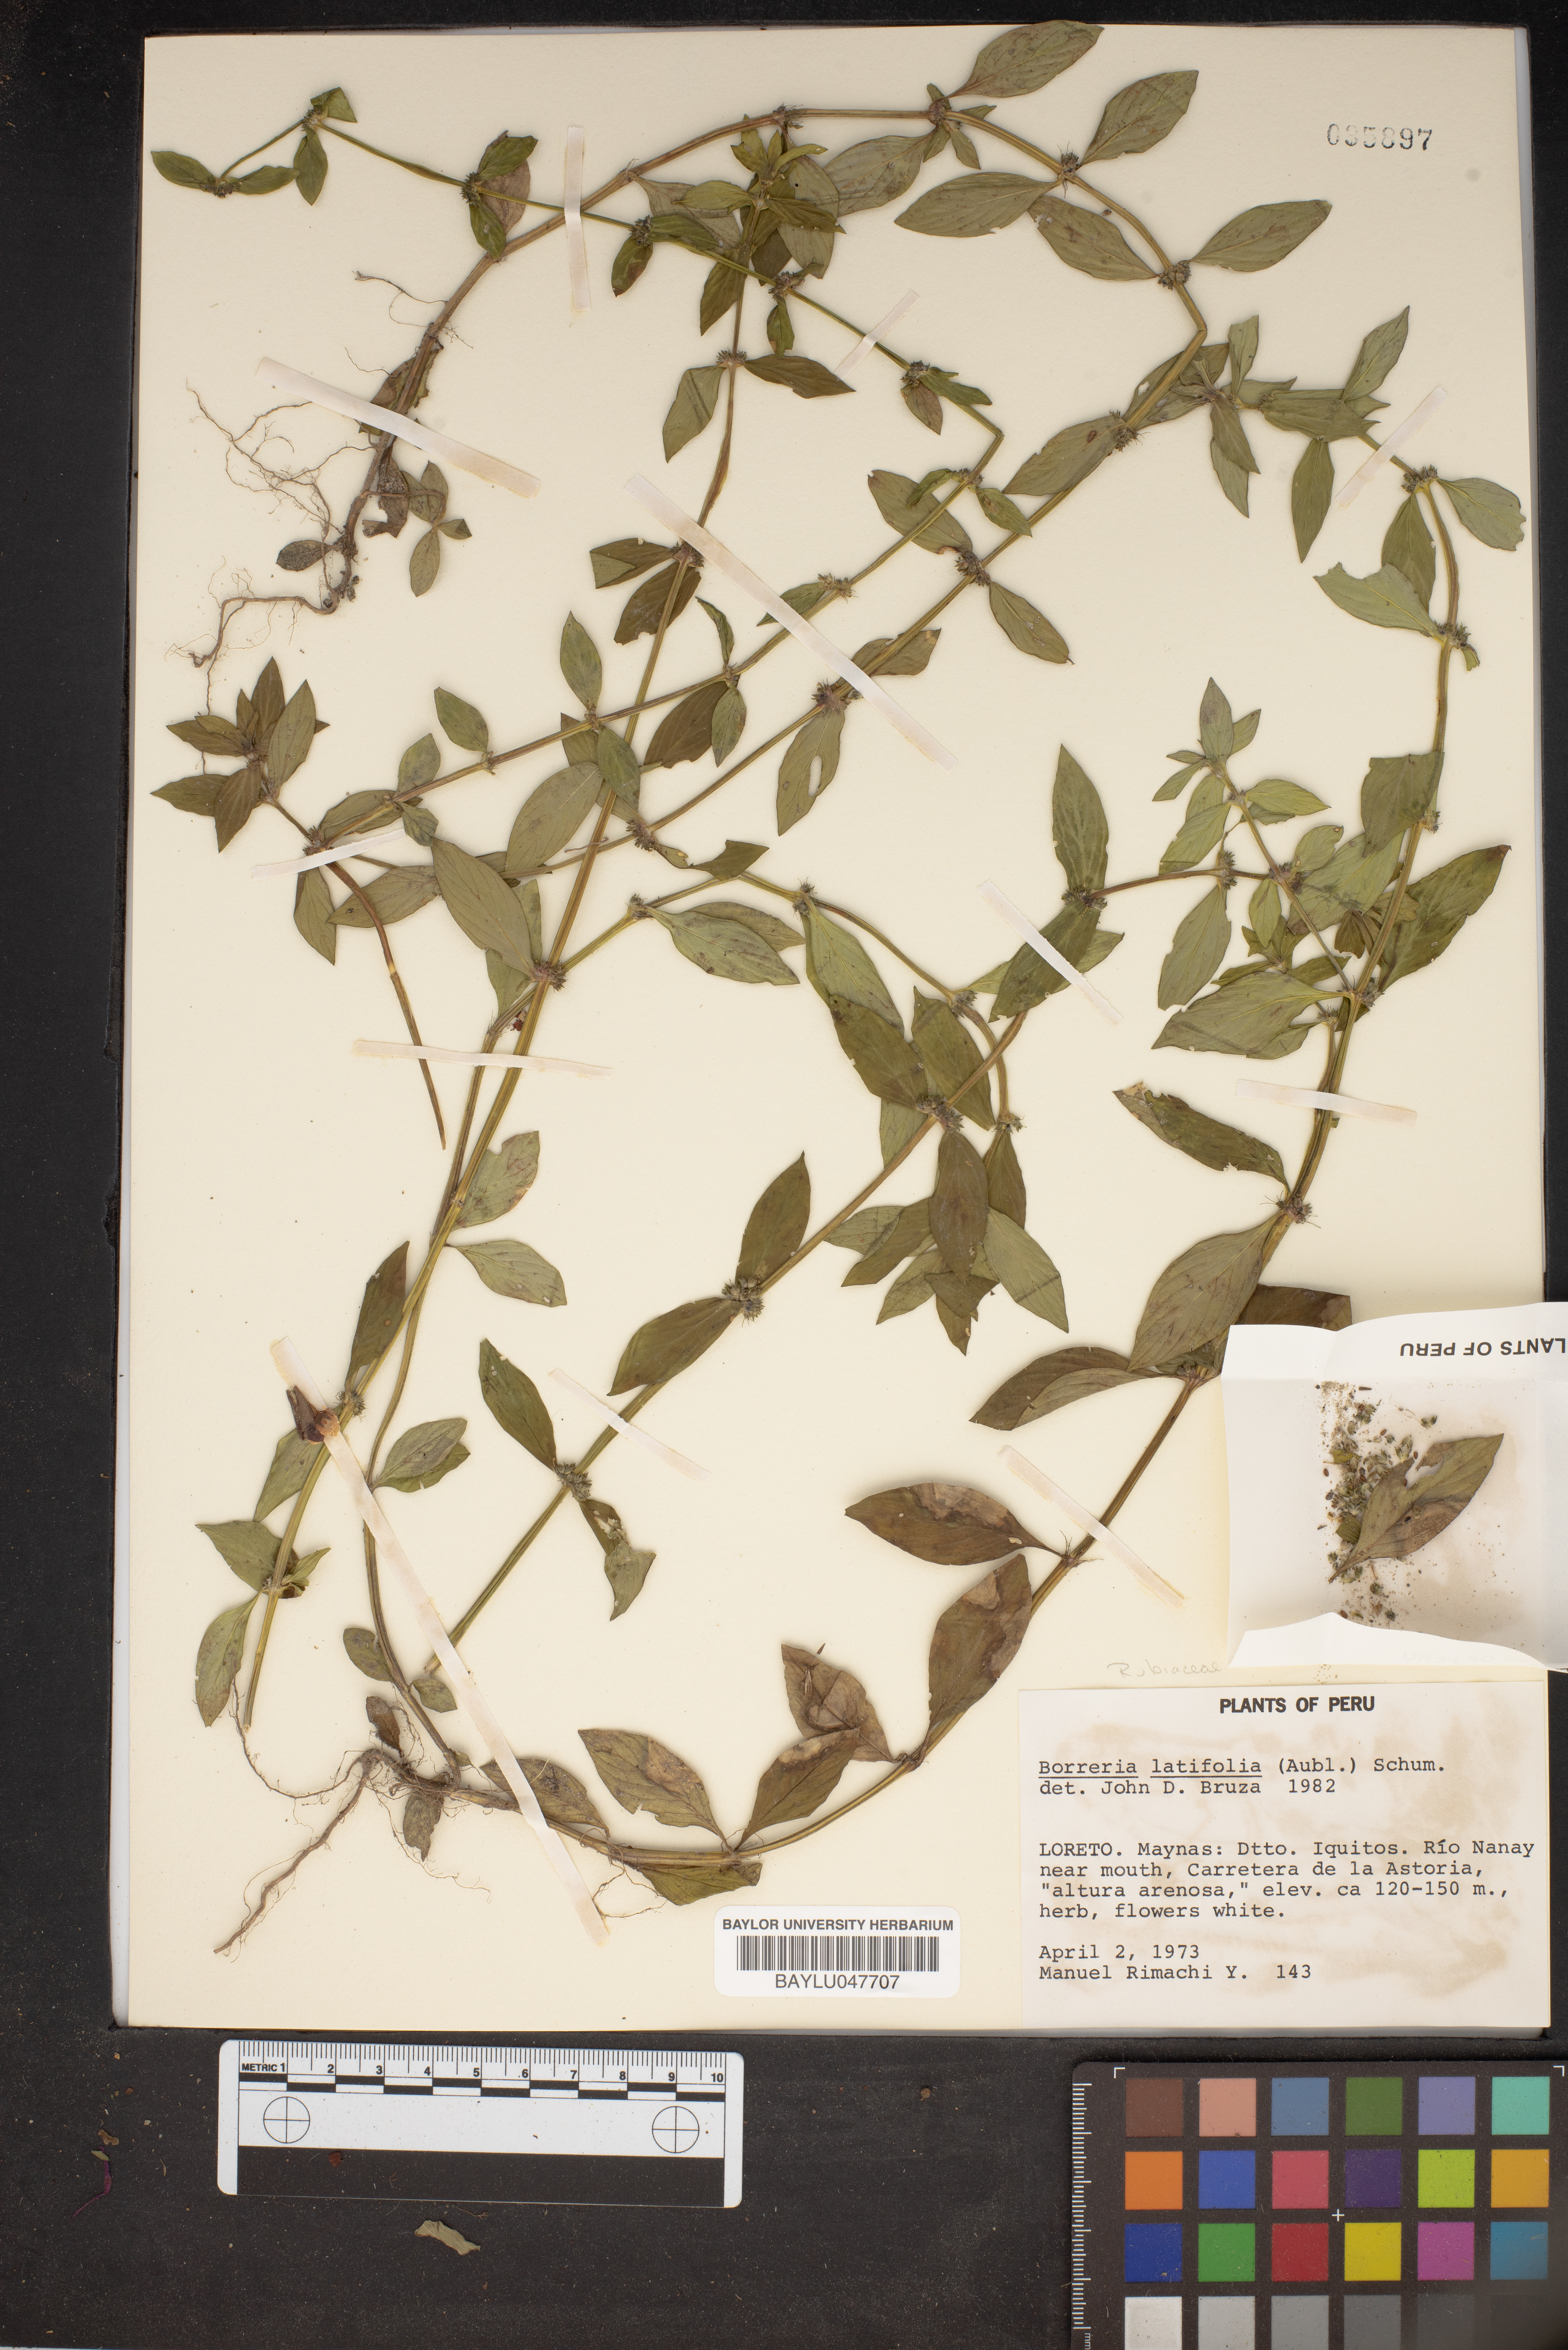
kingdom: Plantae
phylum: Tracheophyta
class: Magnoliopsida
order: Gentianales
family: Rubiaceae
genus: Spermacoce
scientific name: Spermacoce latifolia
